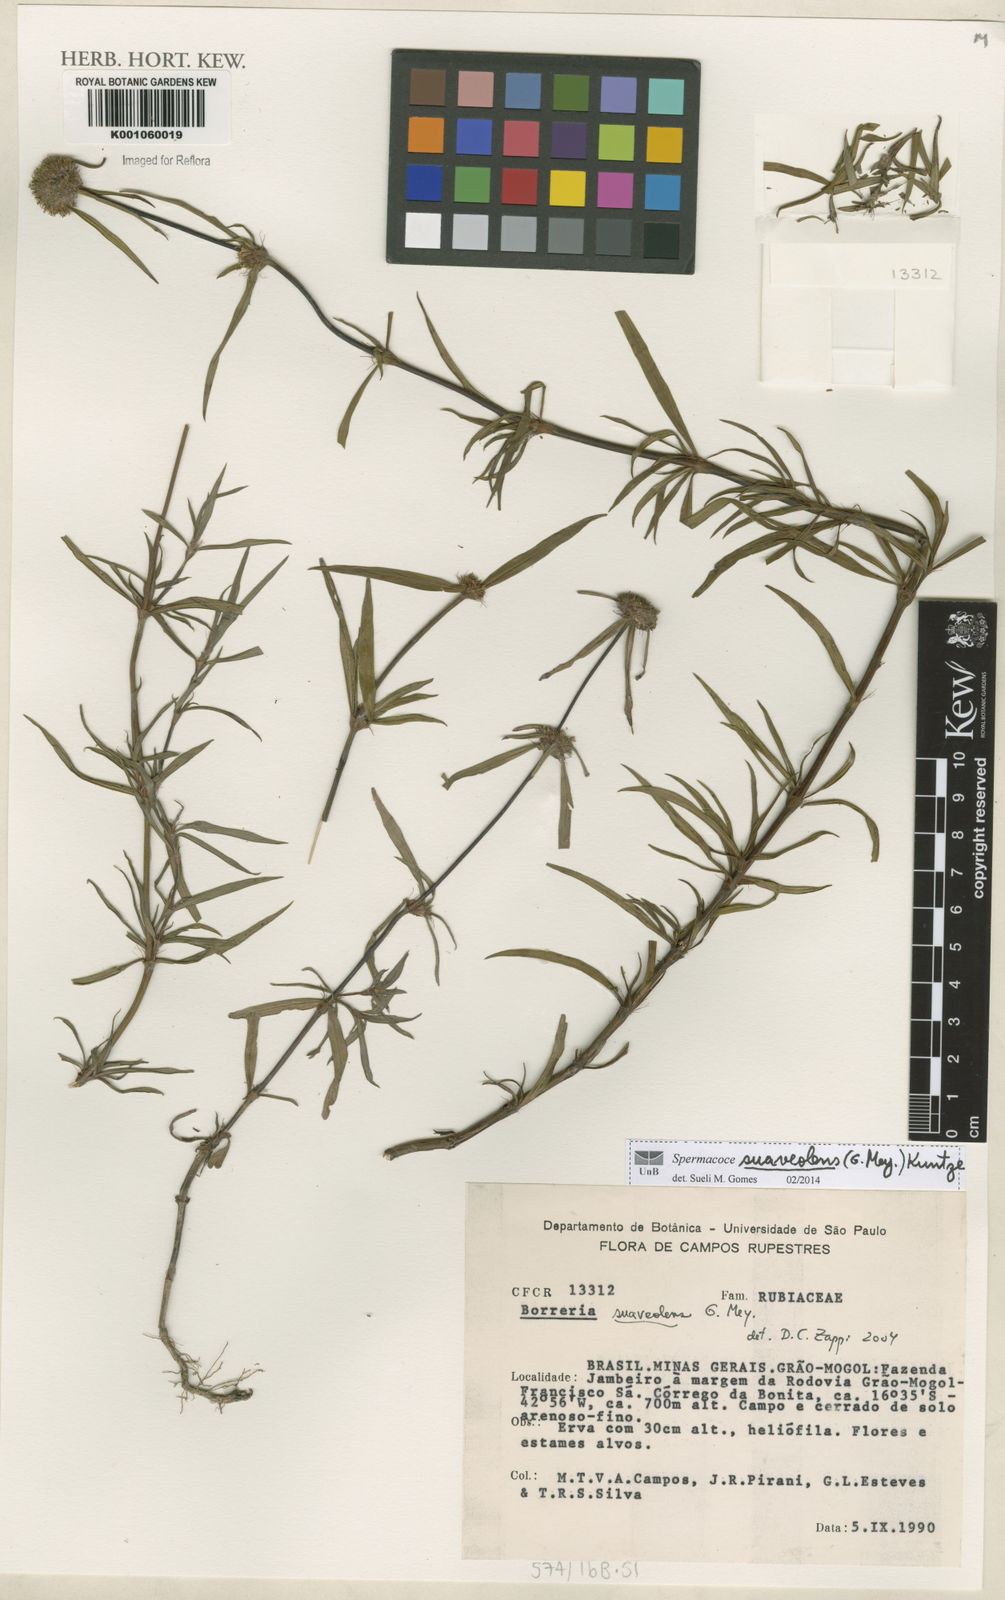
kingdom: Plantae
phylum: Tracheophyta
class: Magnoliopsida
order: Gentianales
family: Rubiaceae
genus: Spermacoce
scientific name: Spermacoce suaveolens
